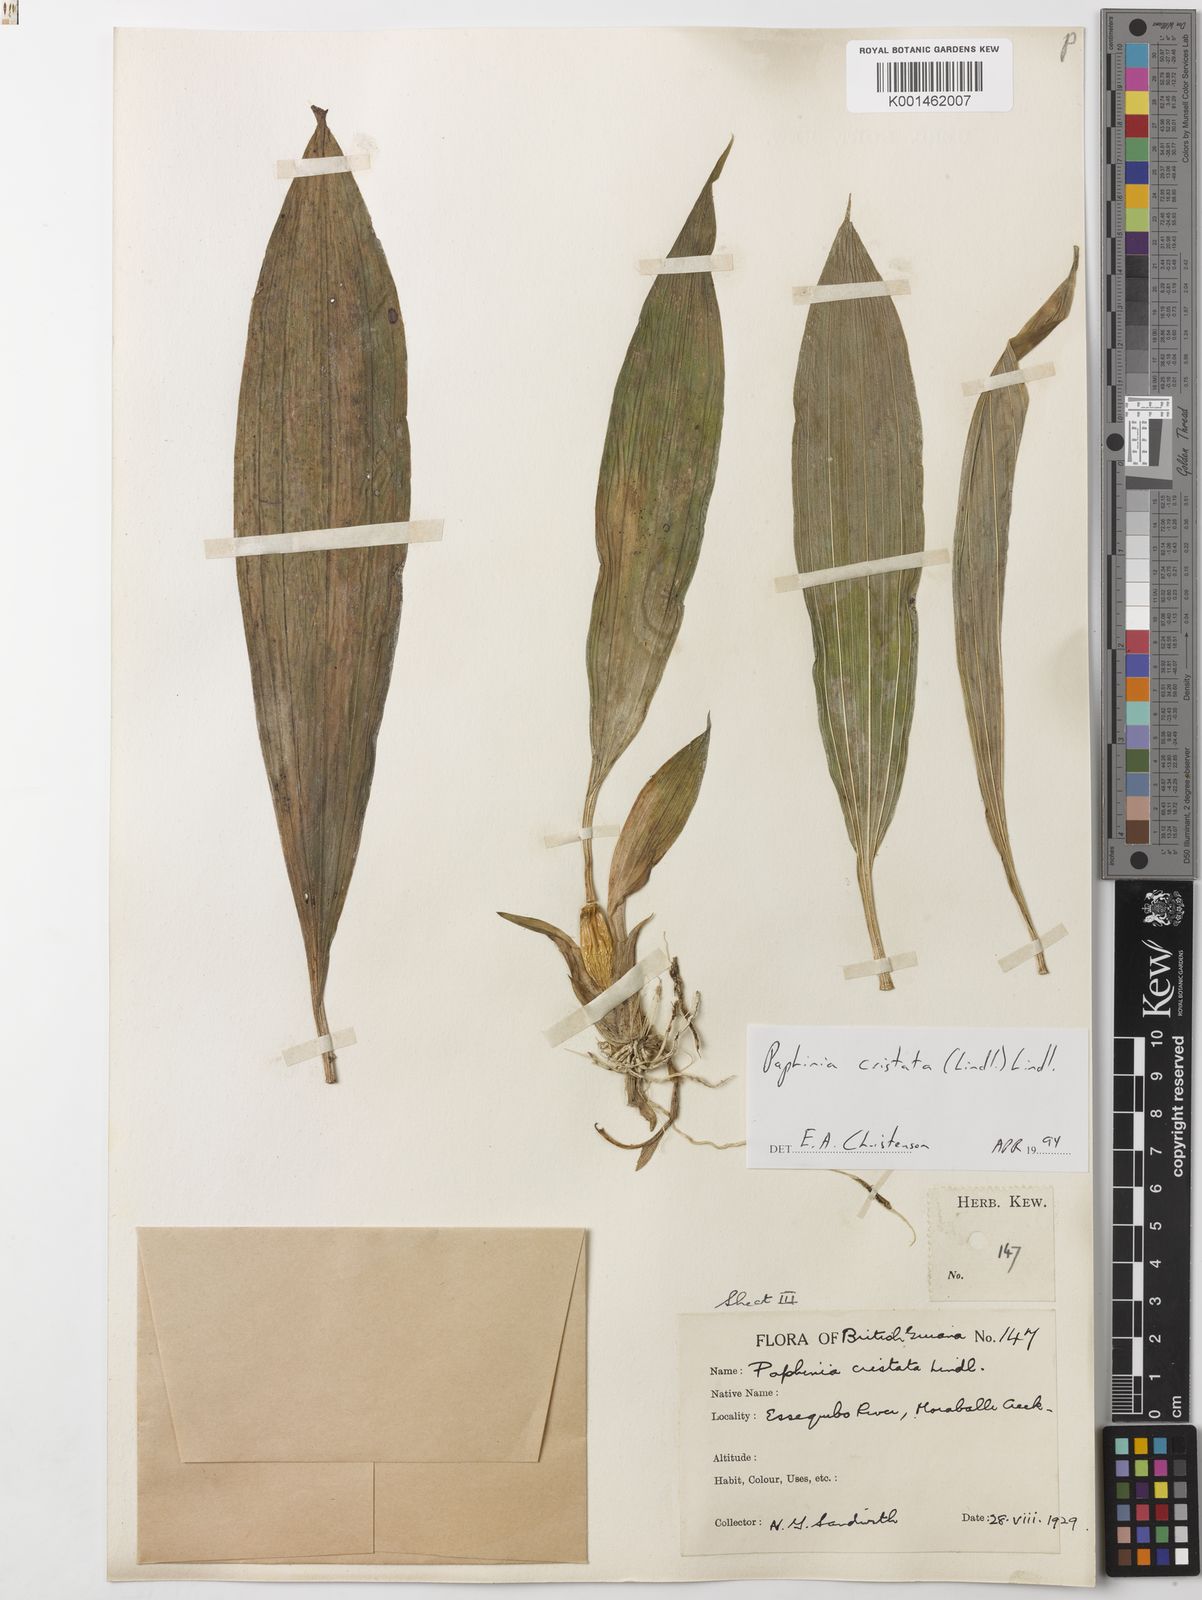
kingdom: Plantae
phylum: Tracheophyta
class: Liliopsida
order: Asparagales
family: Orchidaceae
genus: Paphinia
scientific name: Paphinia cristata
